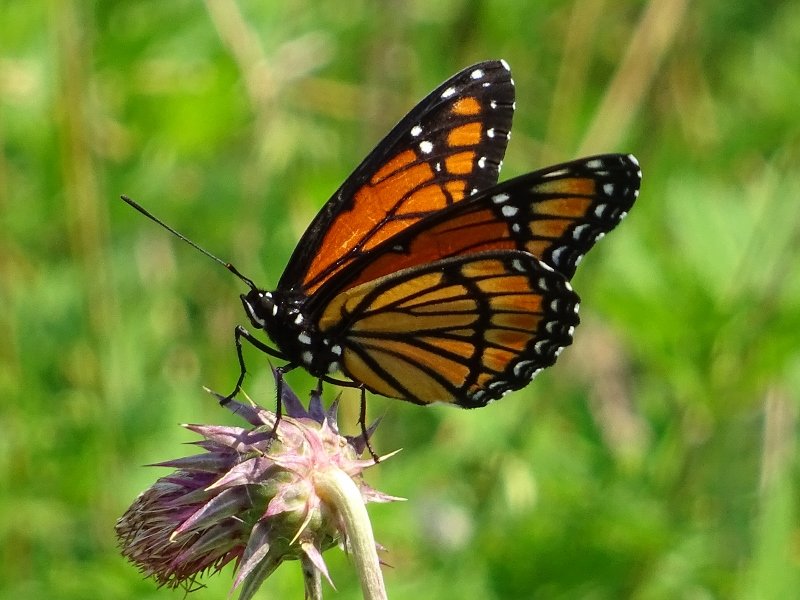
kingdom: Animalia
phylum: Arthropoda
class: Insecta
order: Lepidoptera
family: Nymphalidae
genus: Limenitis
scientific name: Limenitis archippus
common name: Viceroy
